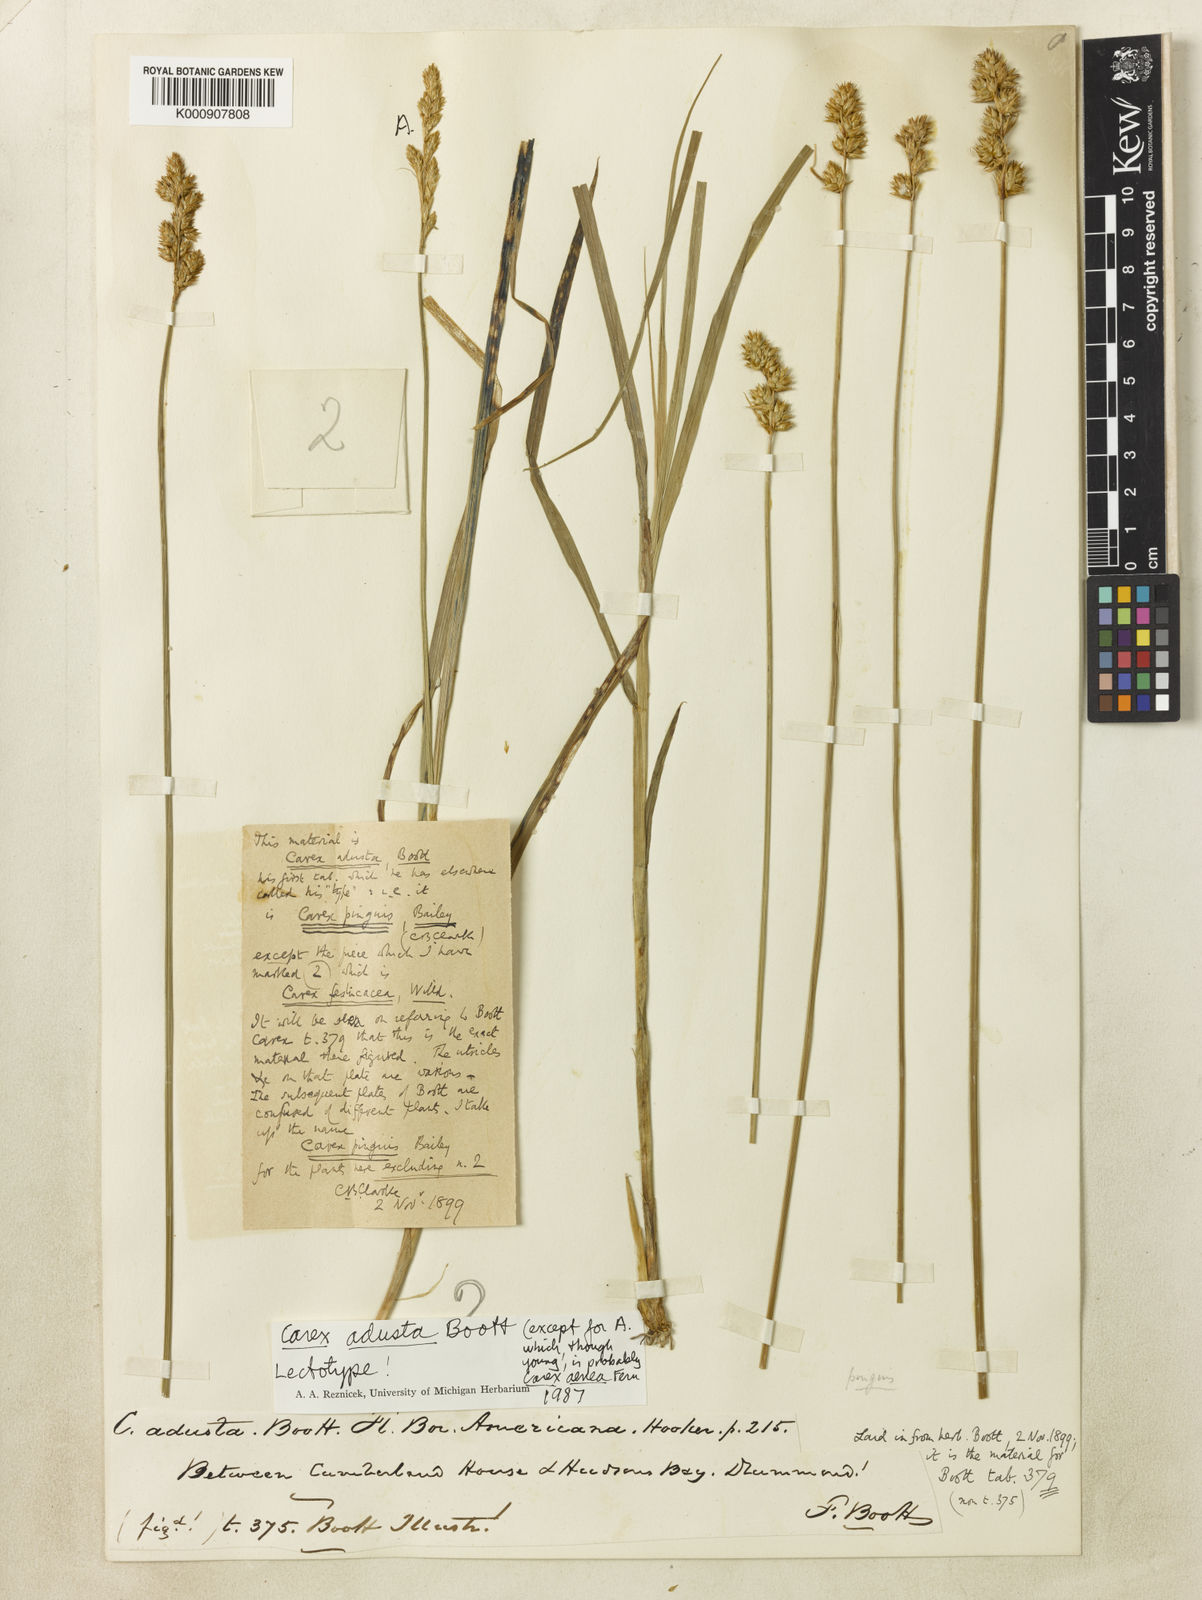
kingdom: Plantae
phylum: Tracheophyta
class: Liliopsida
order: Poales
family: Cyperaceae
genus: Carex
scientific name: Carex adusta
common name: Browned sedge
